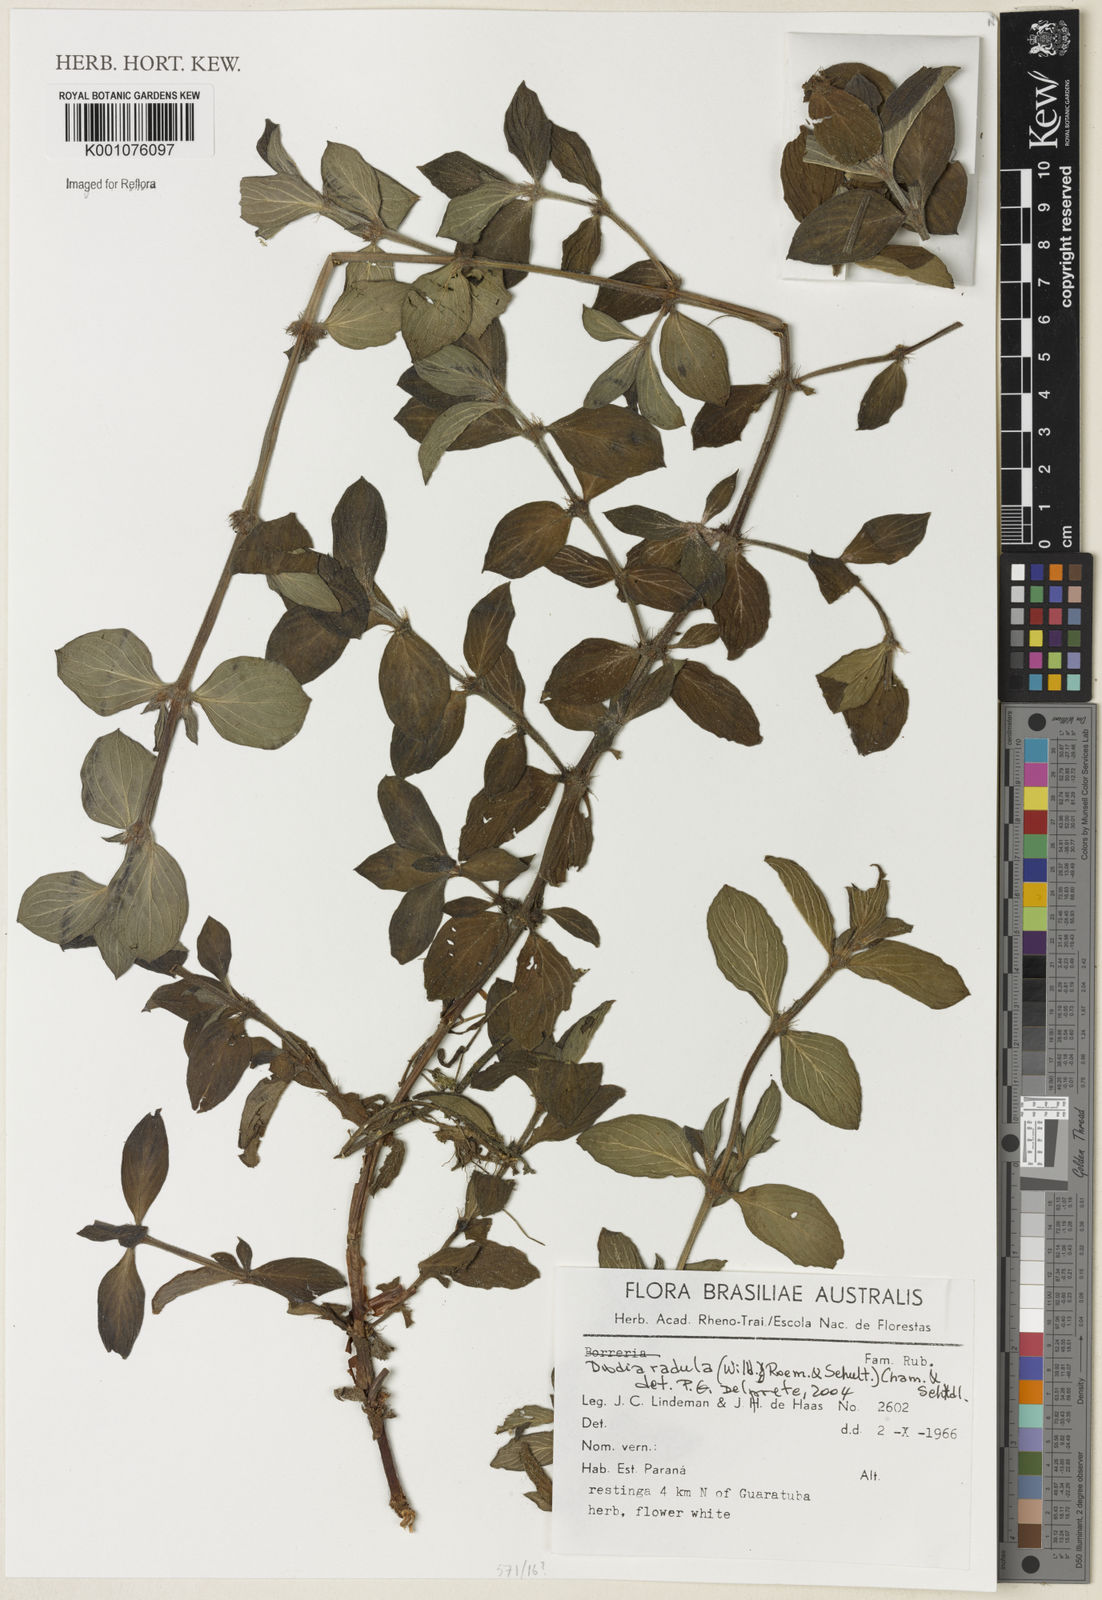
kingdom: Plantae
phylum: Tracheophyta
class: Magnoliopsida
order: Gentianales
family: Rubiaceae
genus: Hexasepalum
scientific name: Hexasepalum
